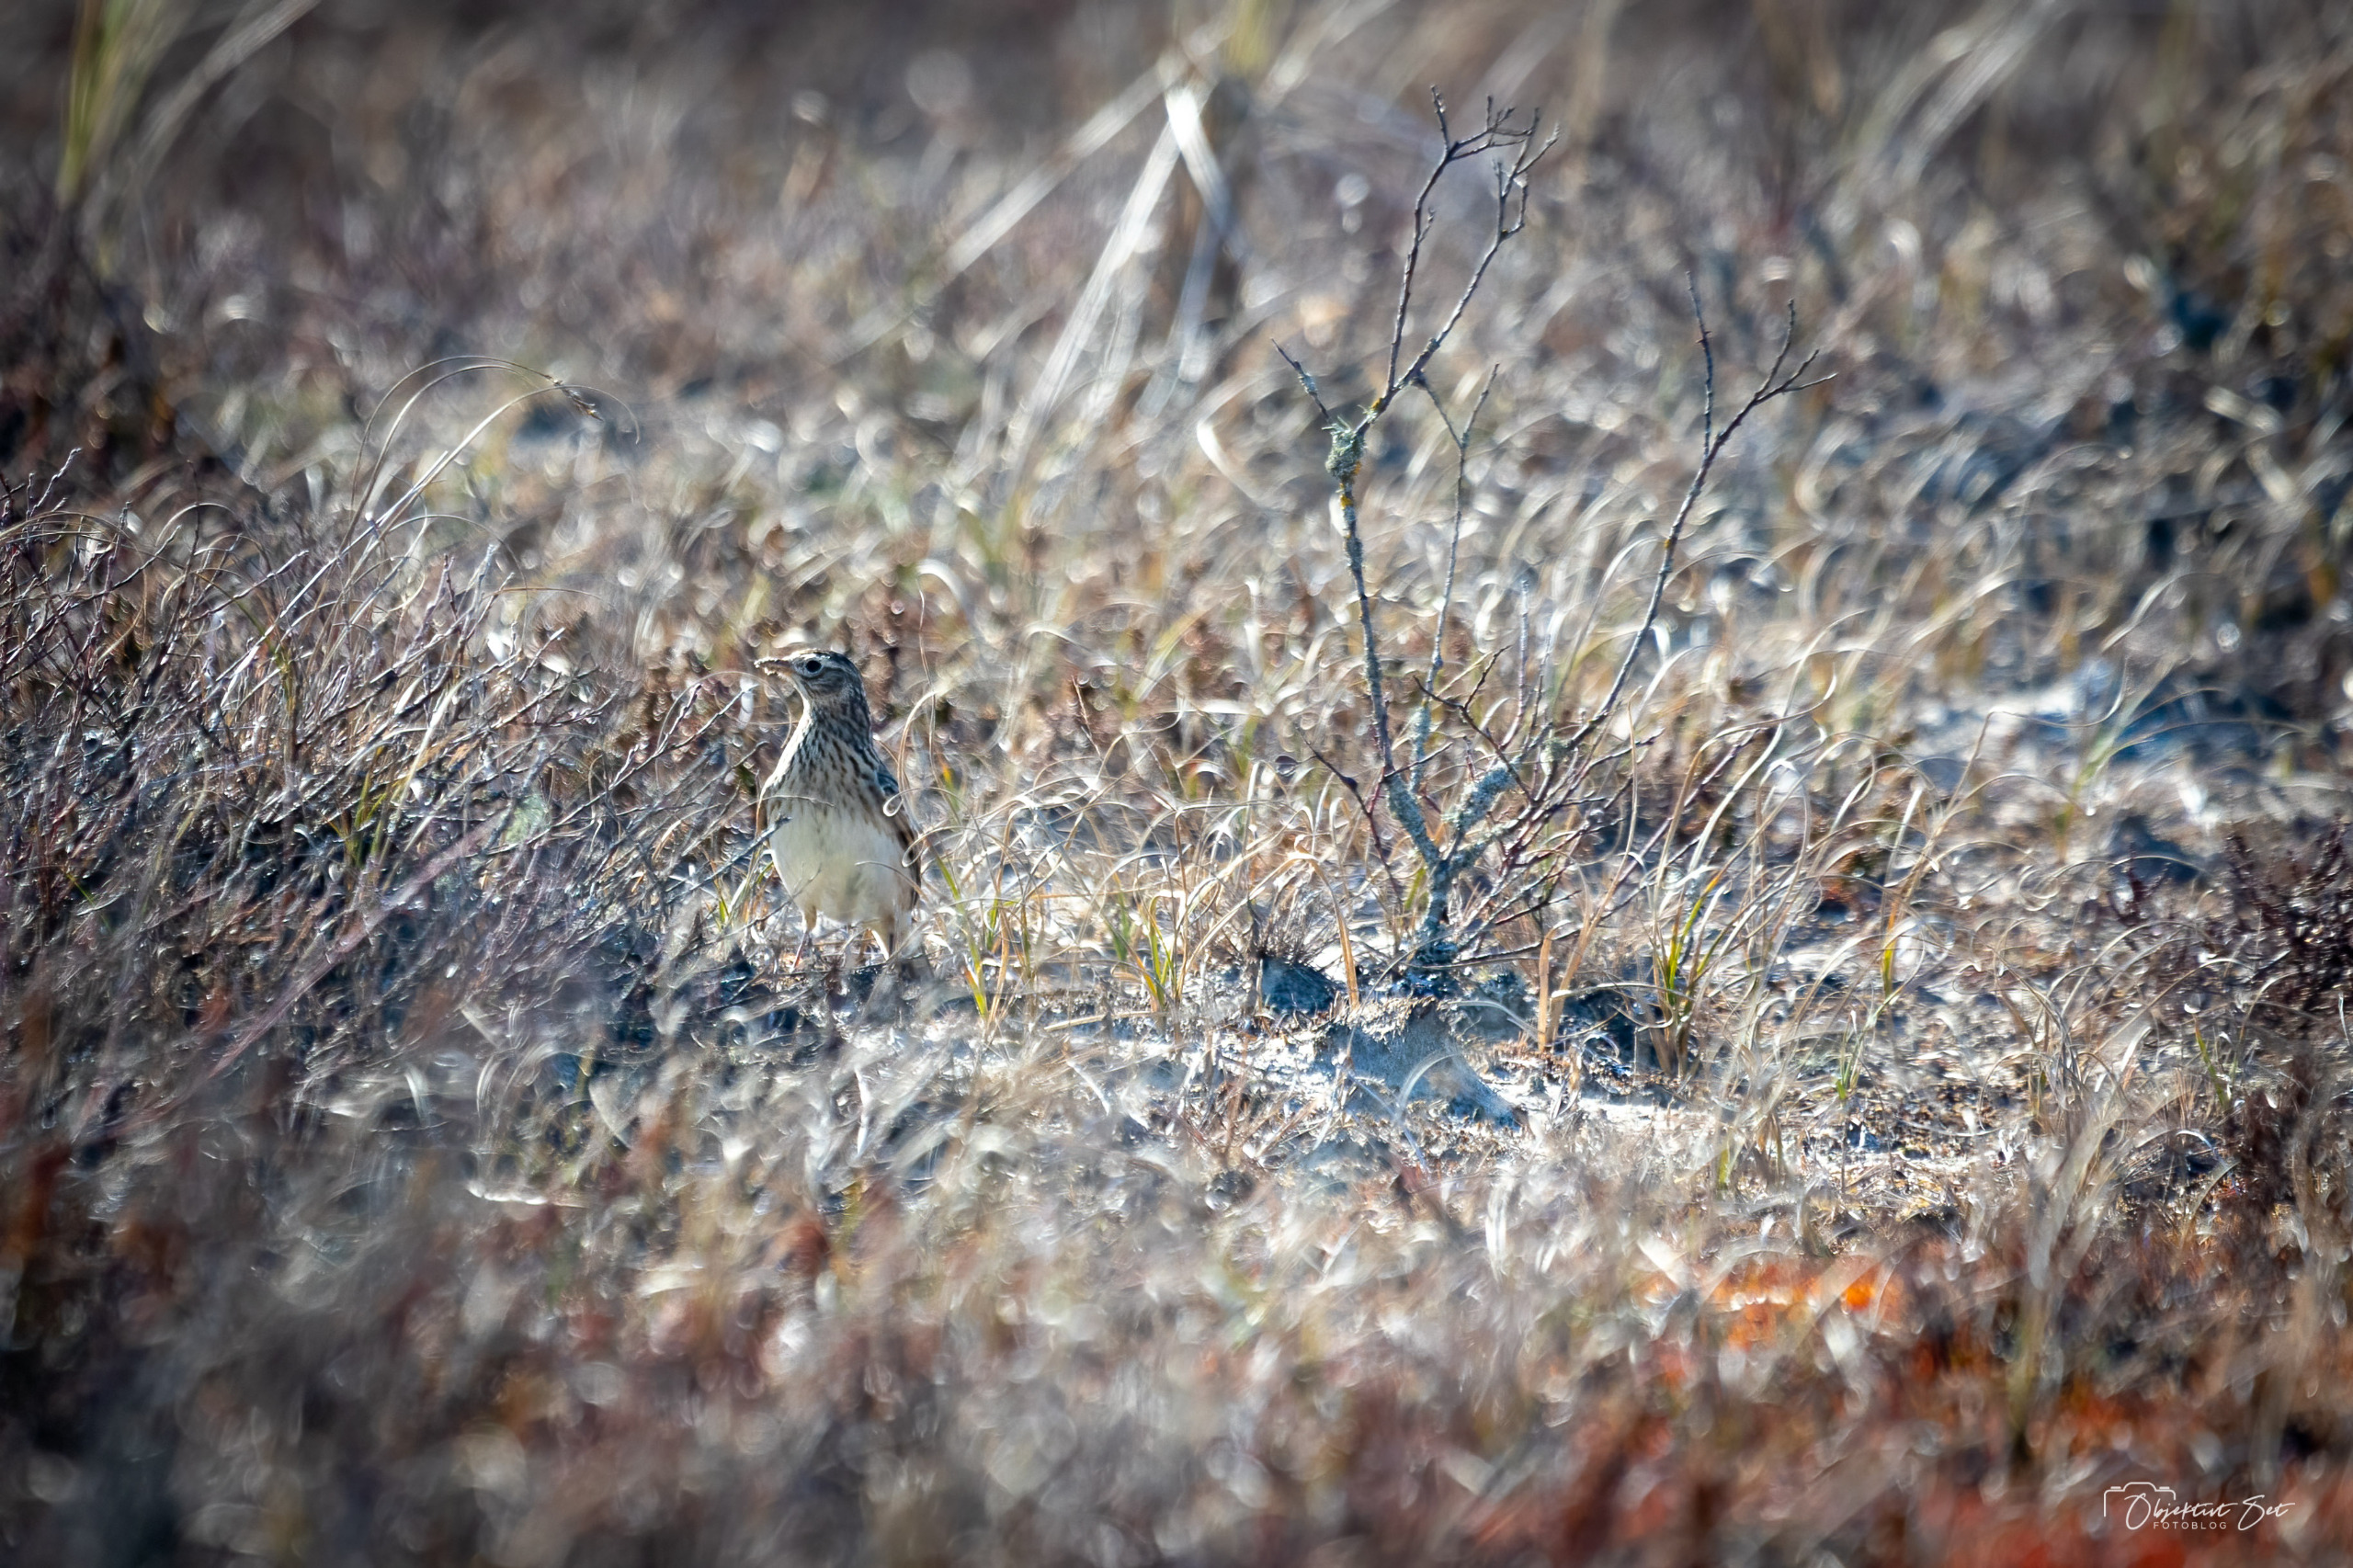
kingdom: Animalia
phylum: Chordata
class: Aves
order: Passeriformes
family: Alaudidae
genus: Alauda
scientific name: Alauda arvensis
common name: Sanglærke
